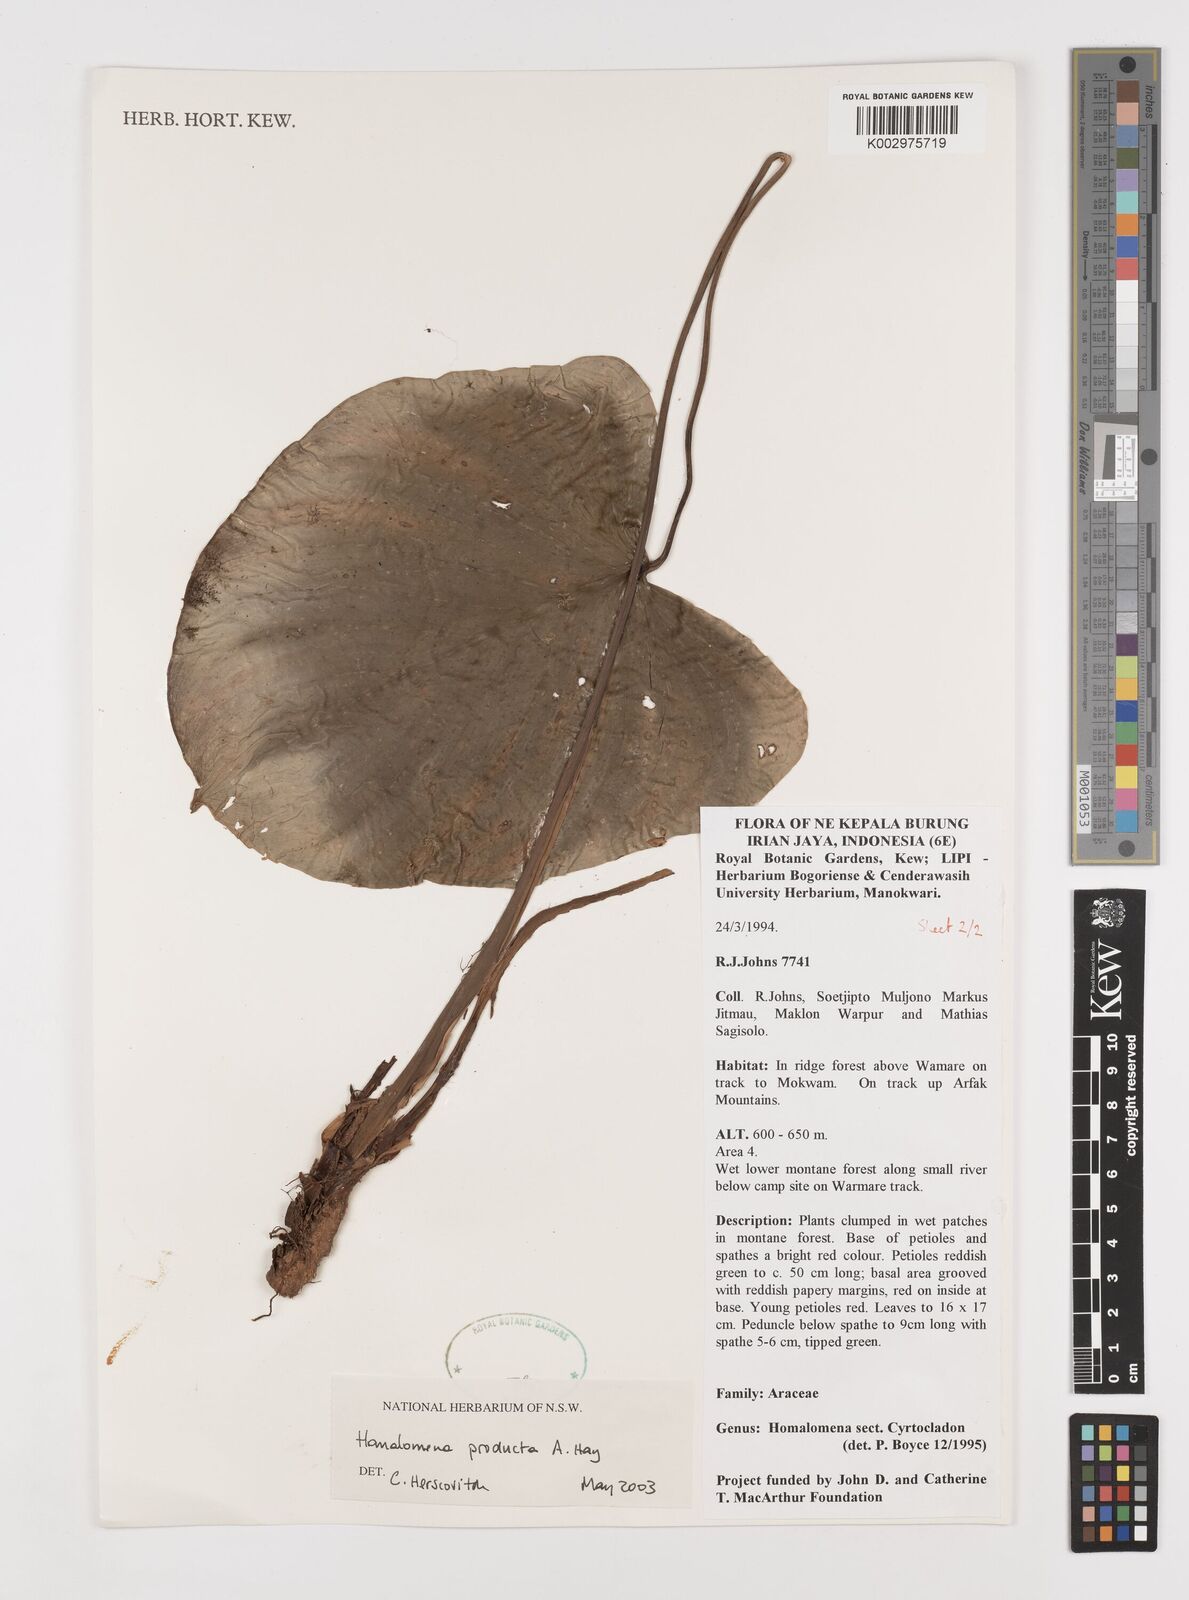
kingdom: Plantae
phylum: Tracheophyta
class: Liliopsida
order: Alismatales
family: Araceae
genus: Homalomena
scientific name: Homalomena producta
